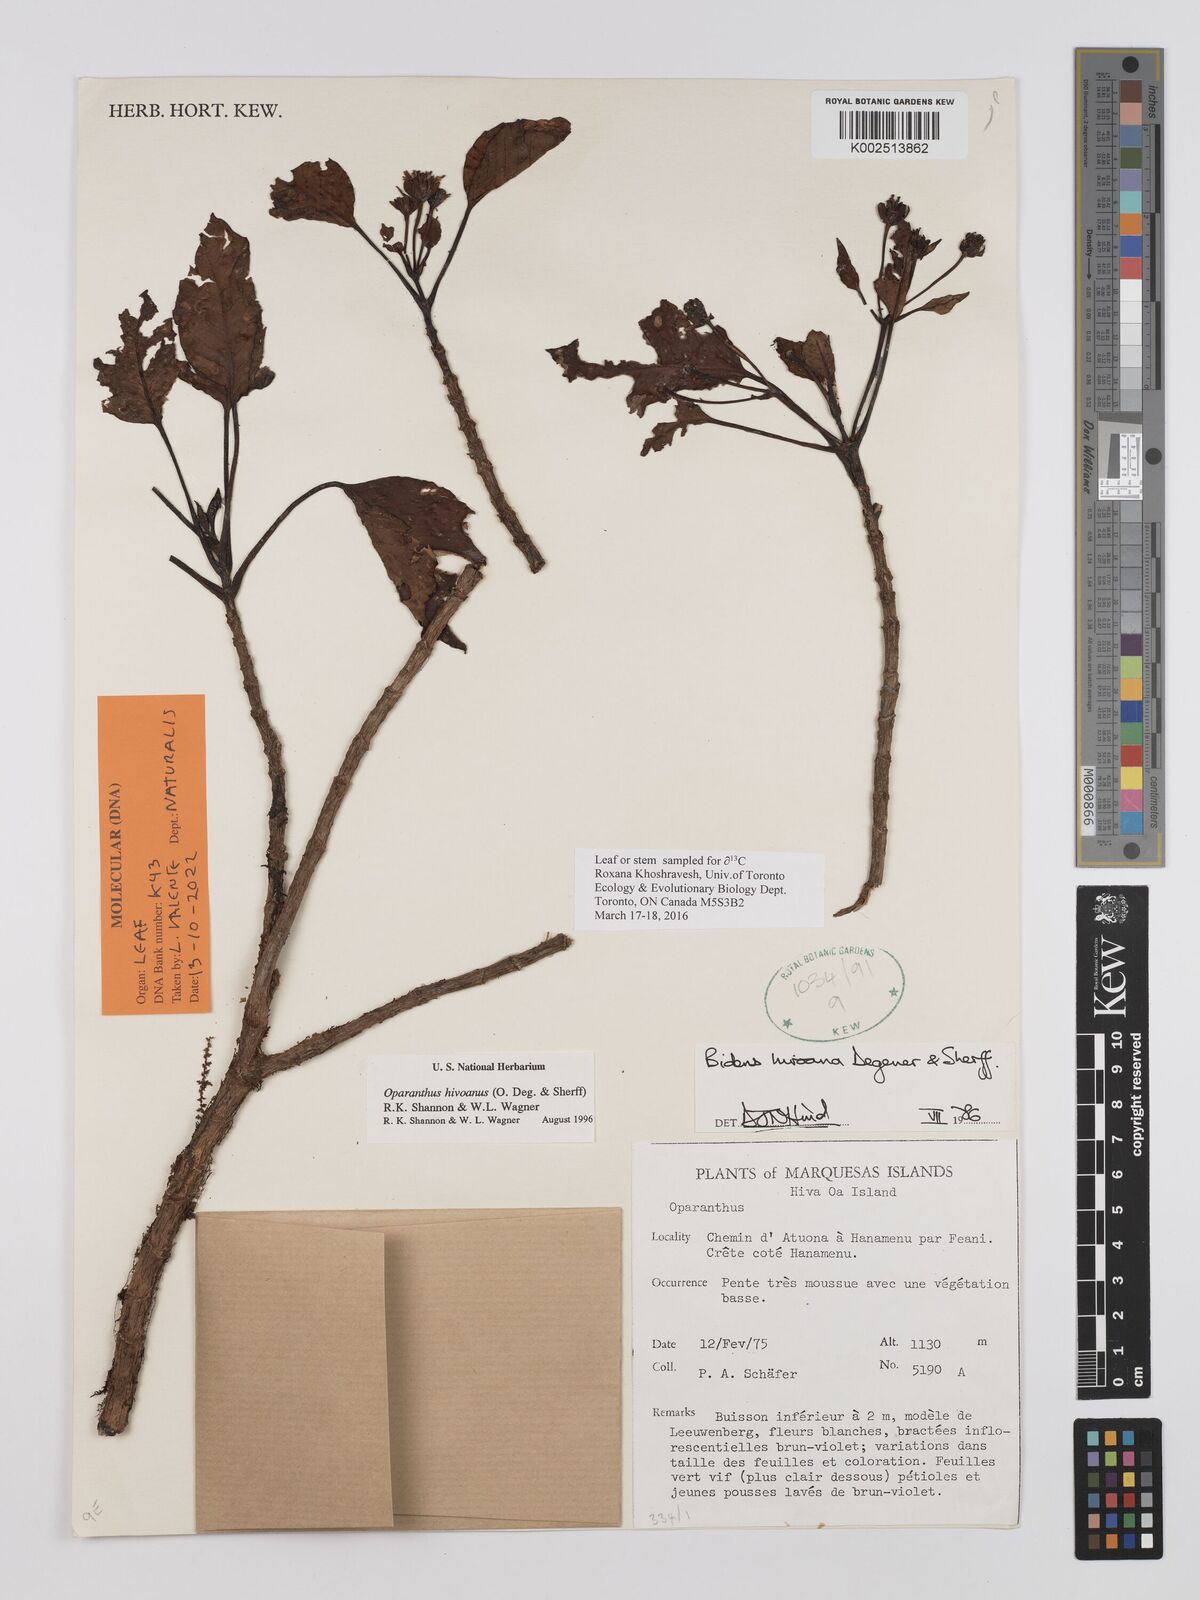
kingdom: Plantae
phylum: Tracheophyta
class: Magnoliopsida
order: Asterales
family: Asteraceae
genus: Oparanthus
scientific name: Oparanthus hivoanus
